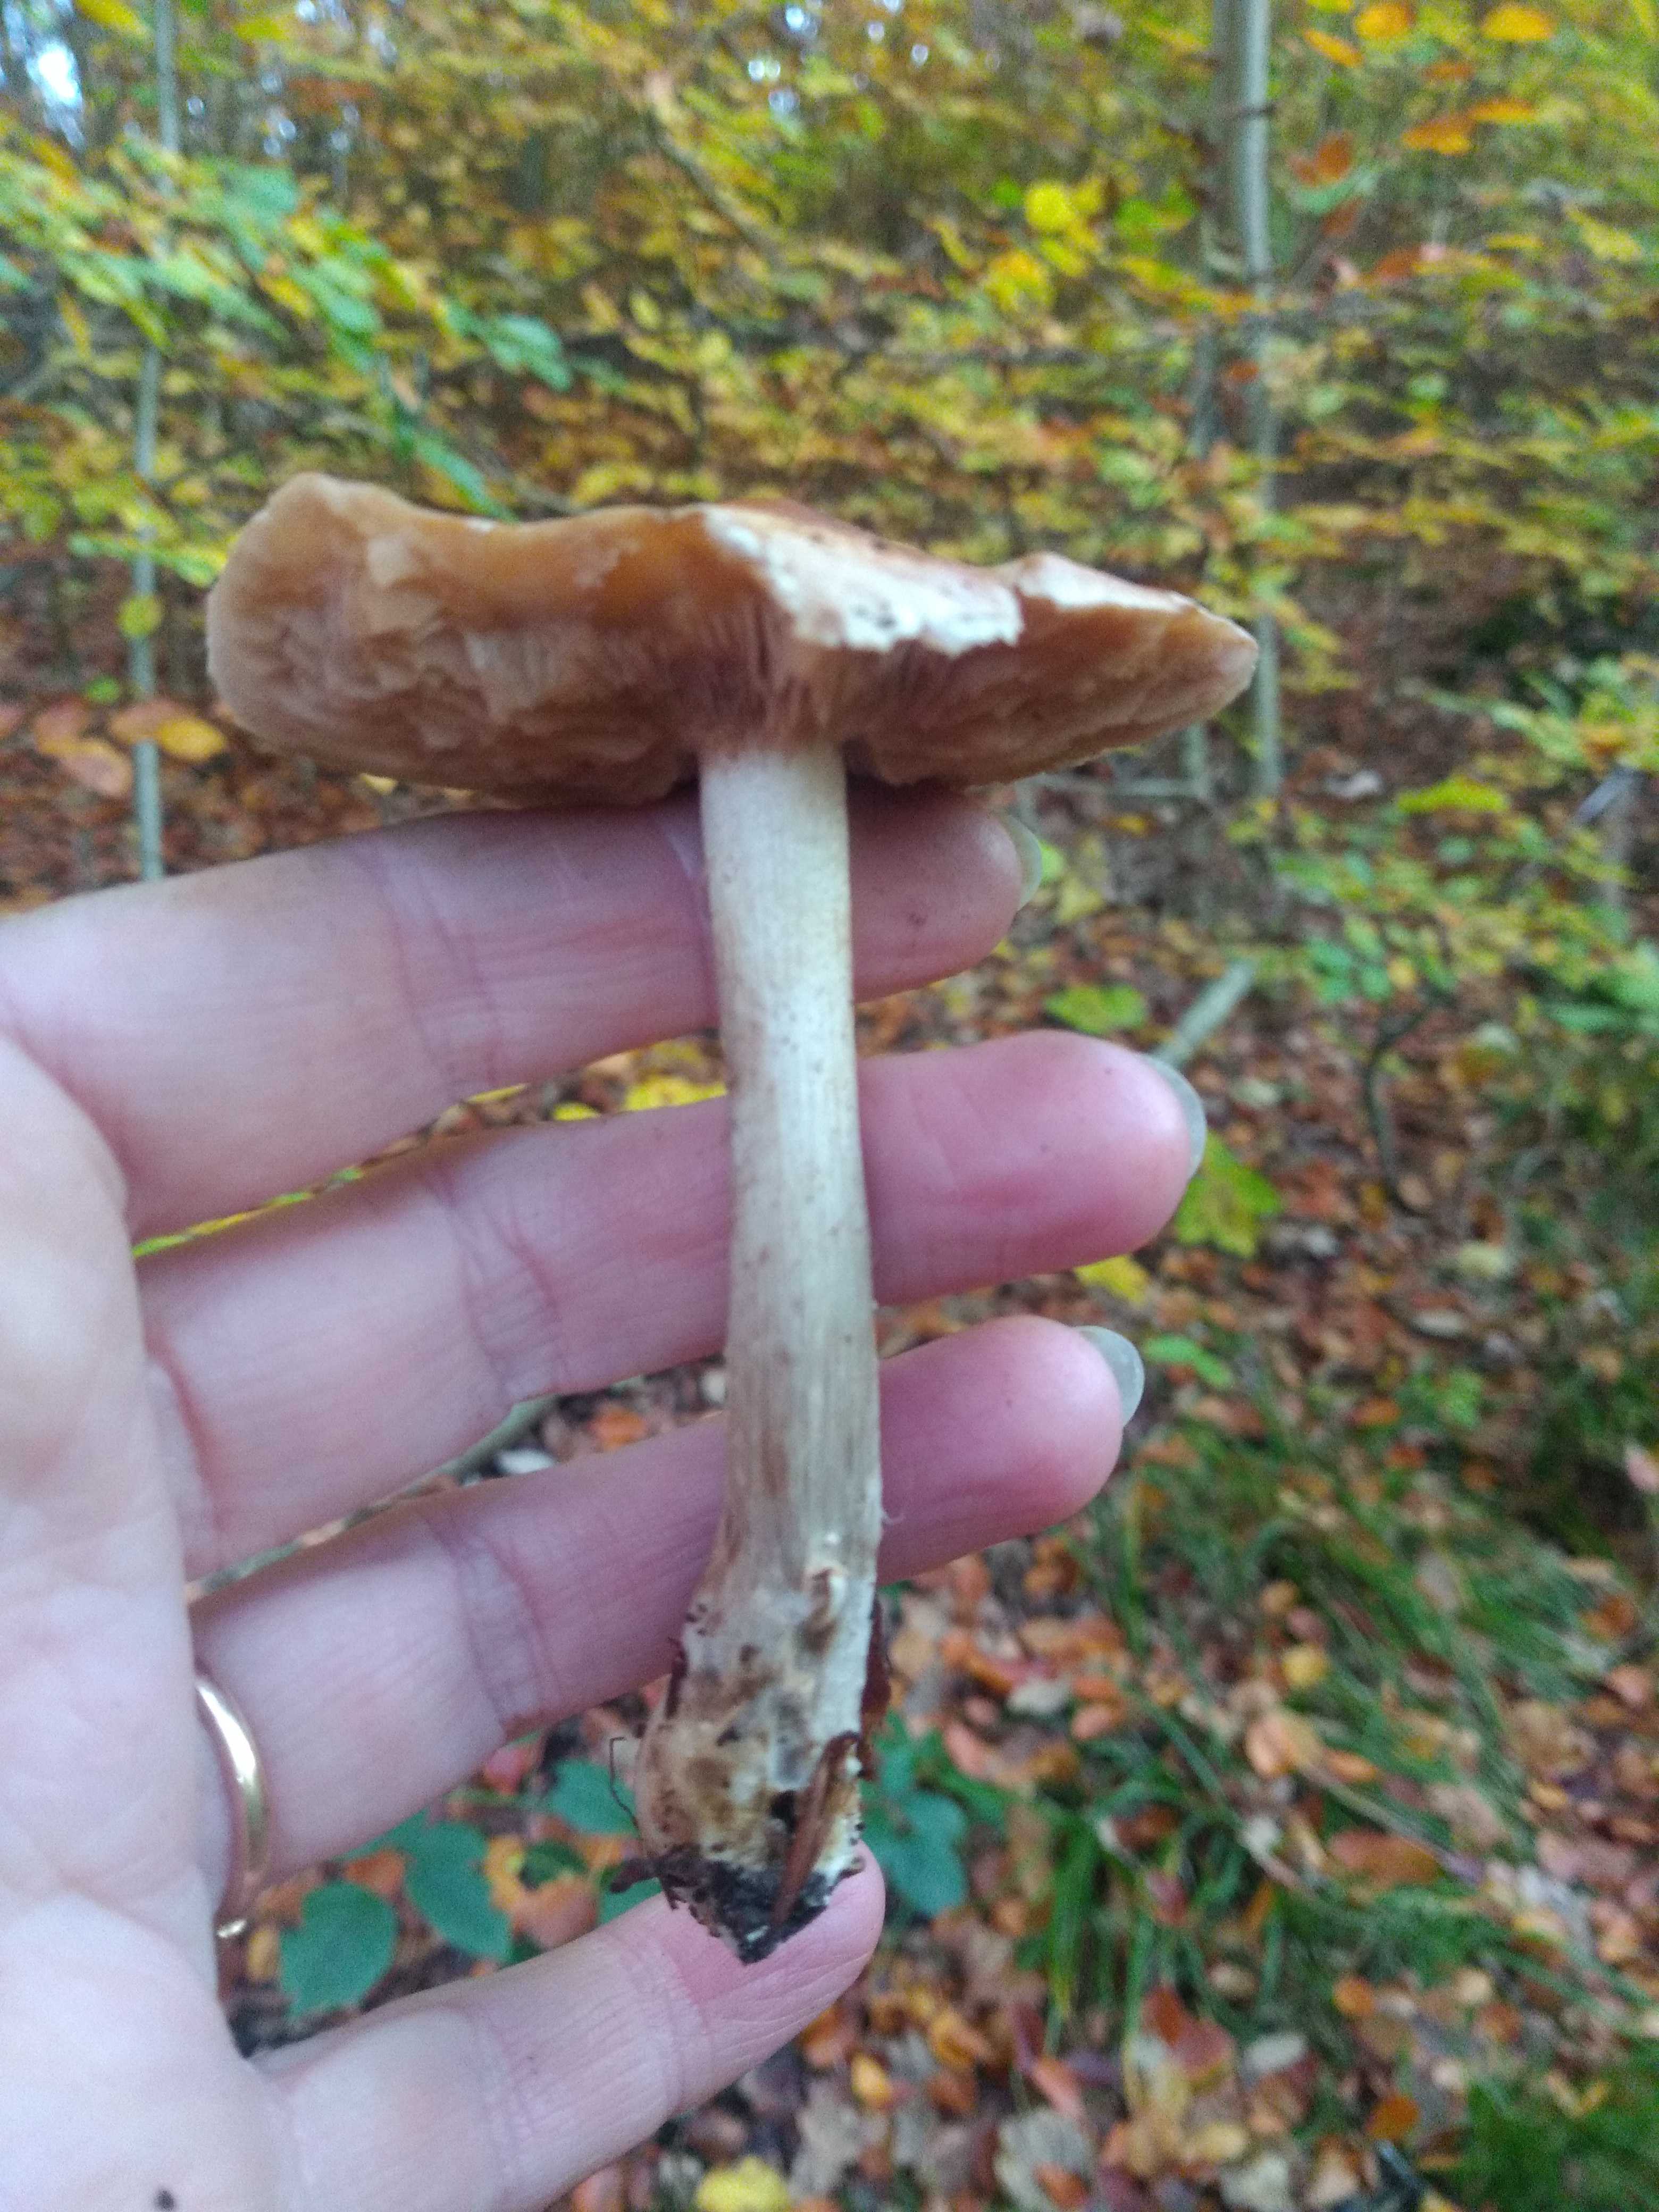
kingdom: Fungi
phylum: Basidiomycota
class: Agaricomycetes
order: Agaricales
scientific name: Agaricales
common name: champignonordenen
